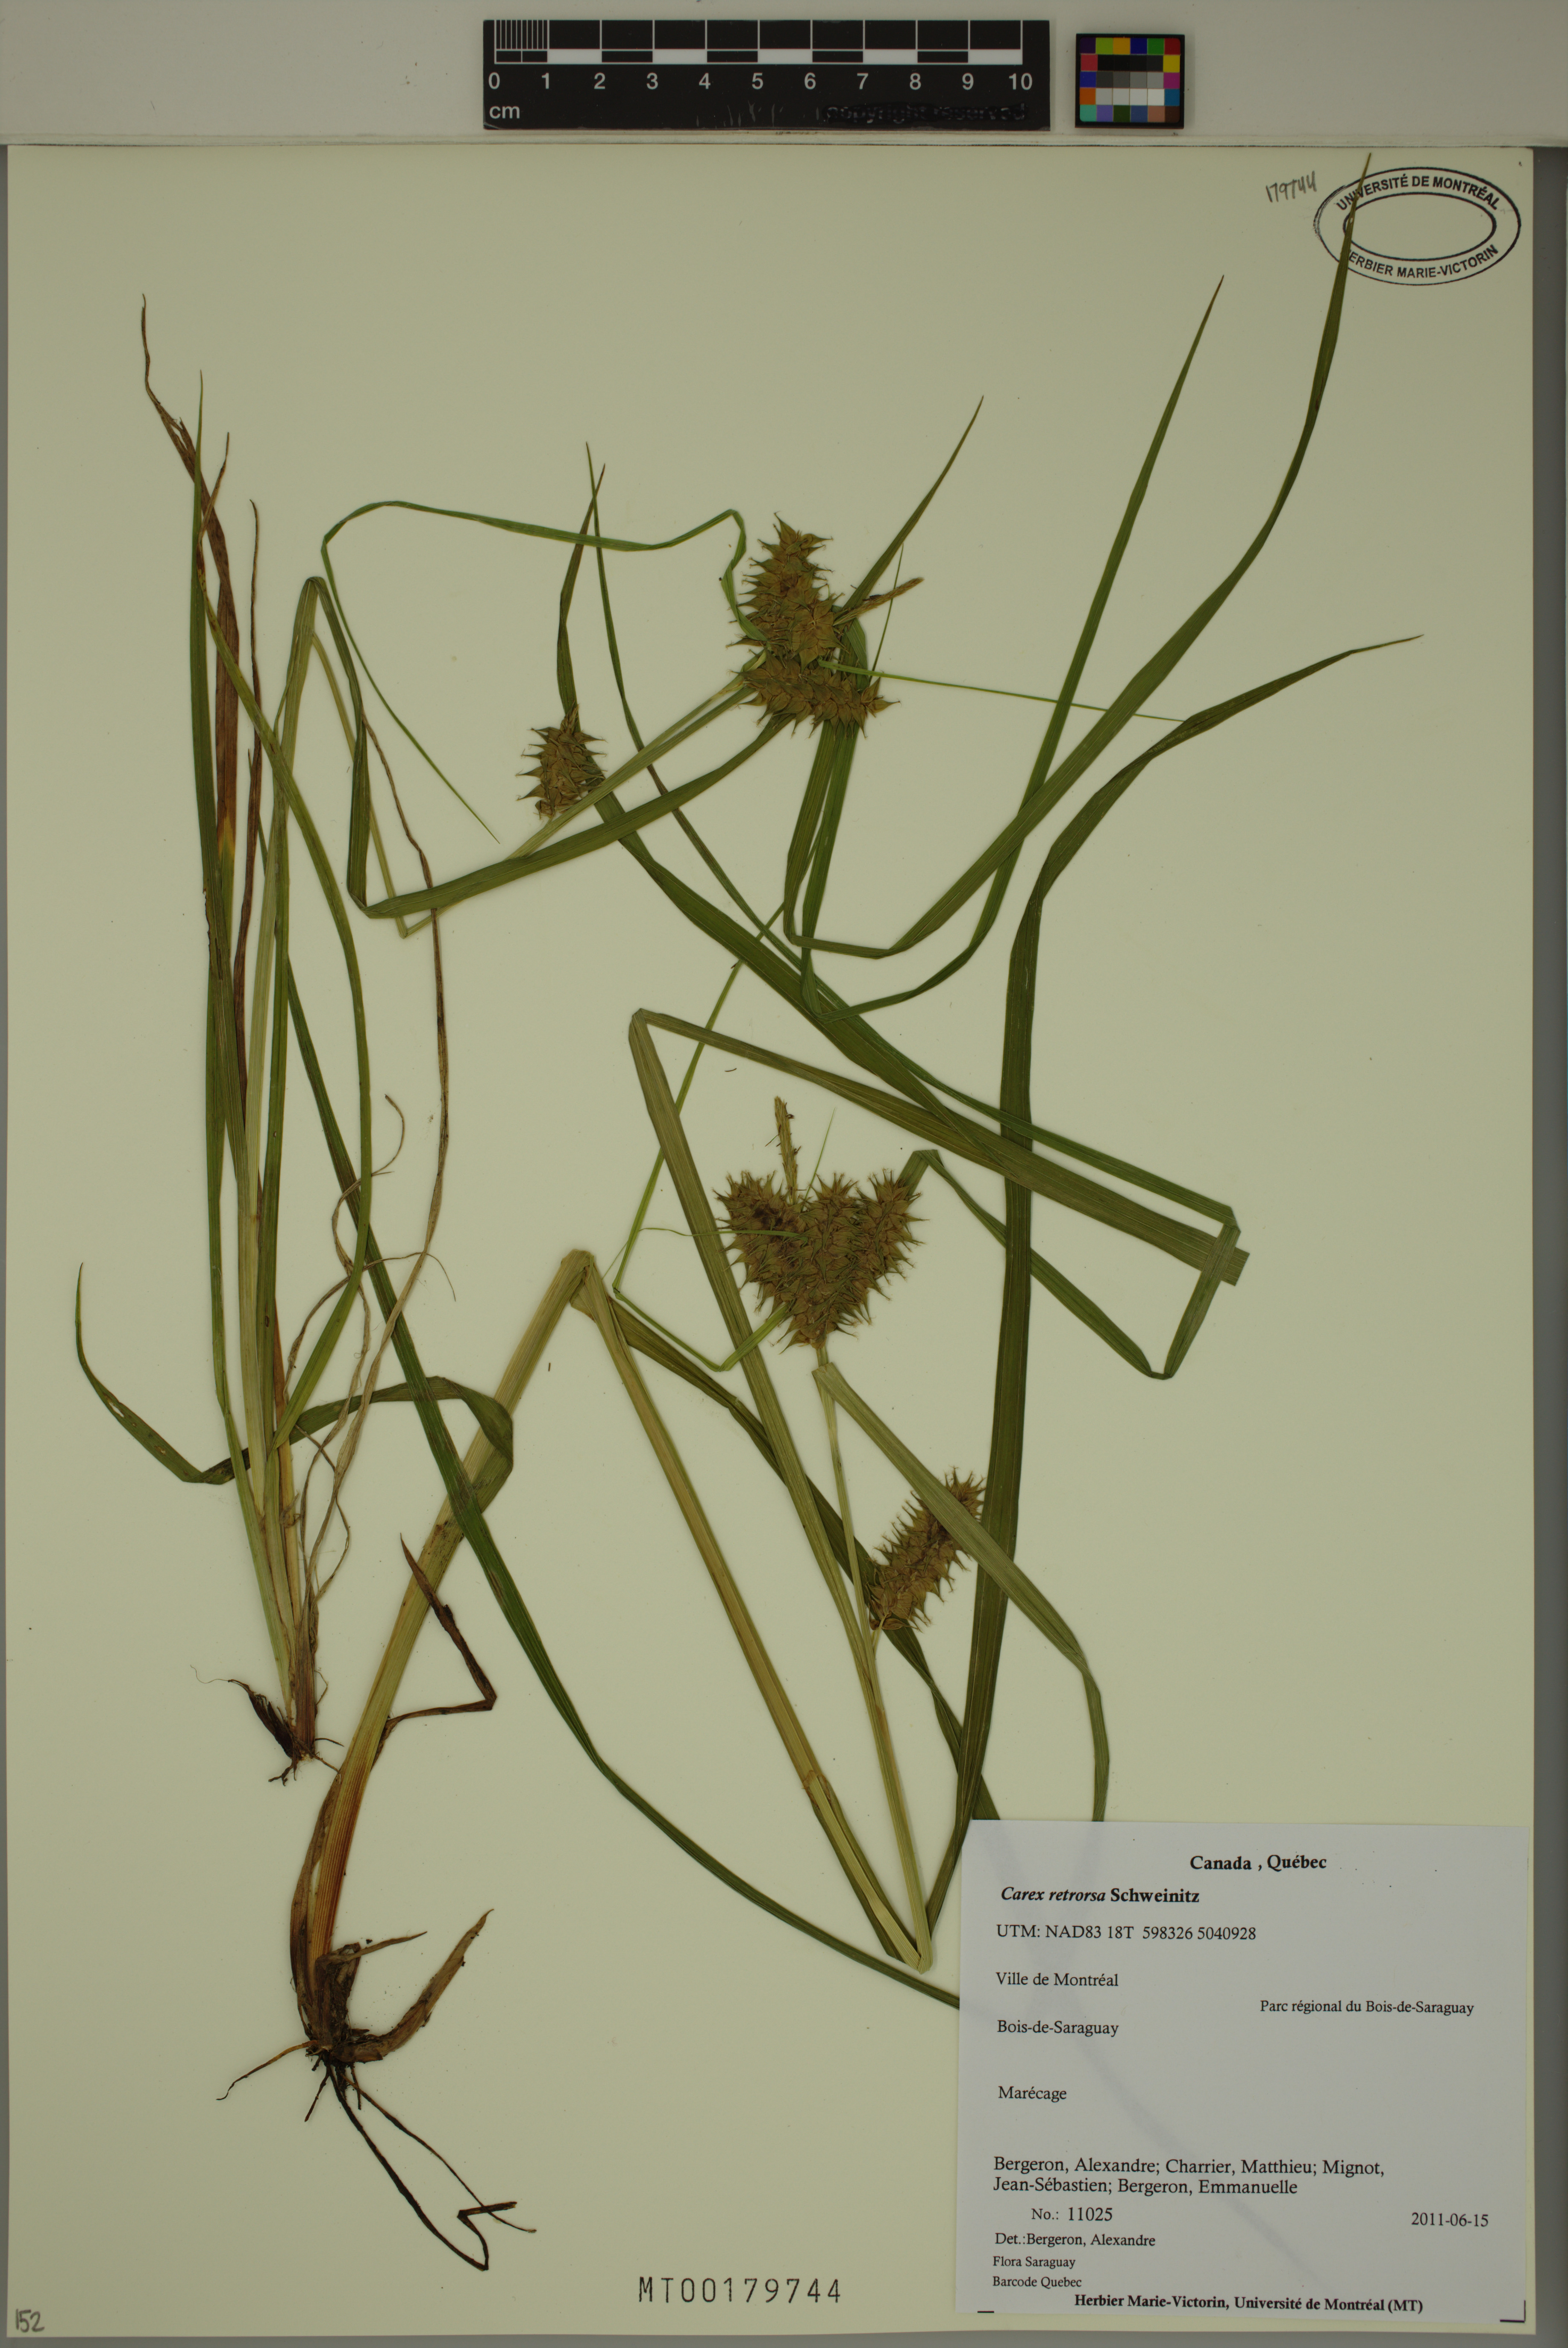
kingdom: Plantae
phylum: Tracheophyta
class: Liliopsida
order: Poales
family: Cyperaceae
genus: Carex
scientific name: Carex retrorsa
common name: Knot-sheath sedge
